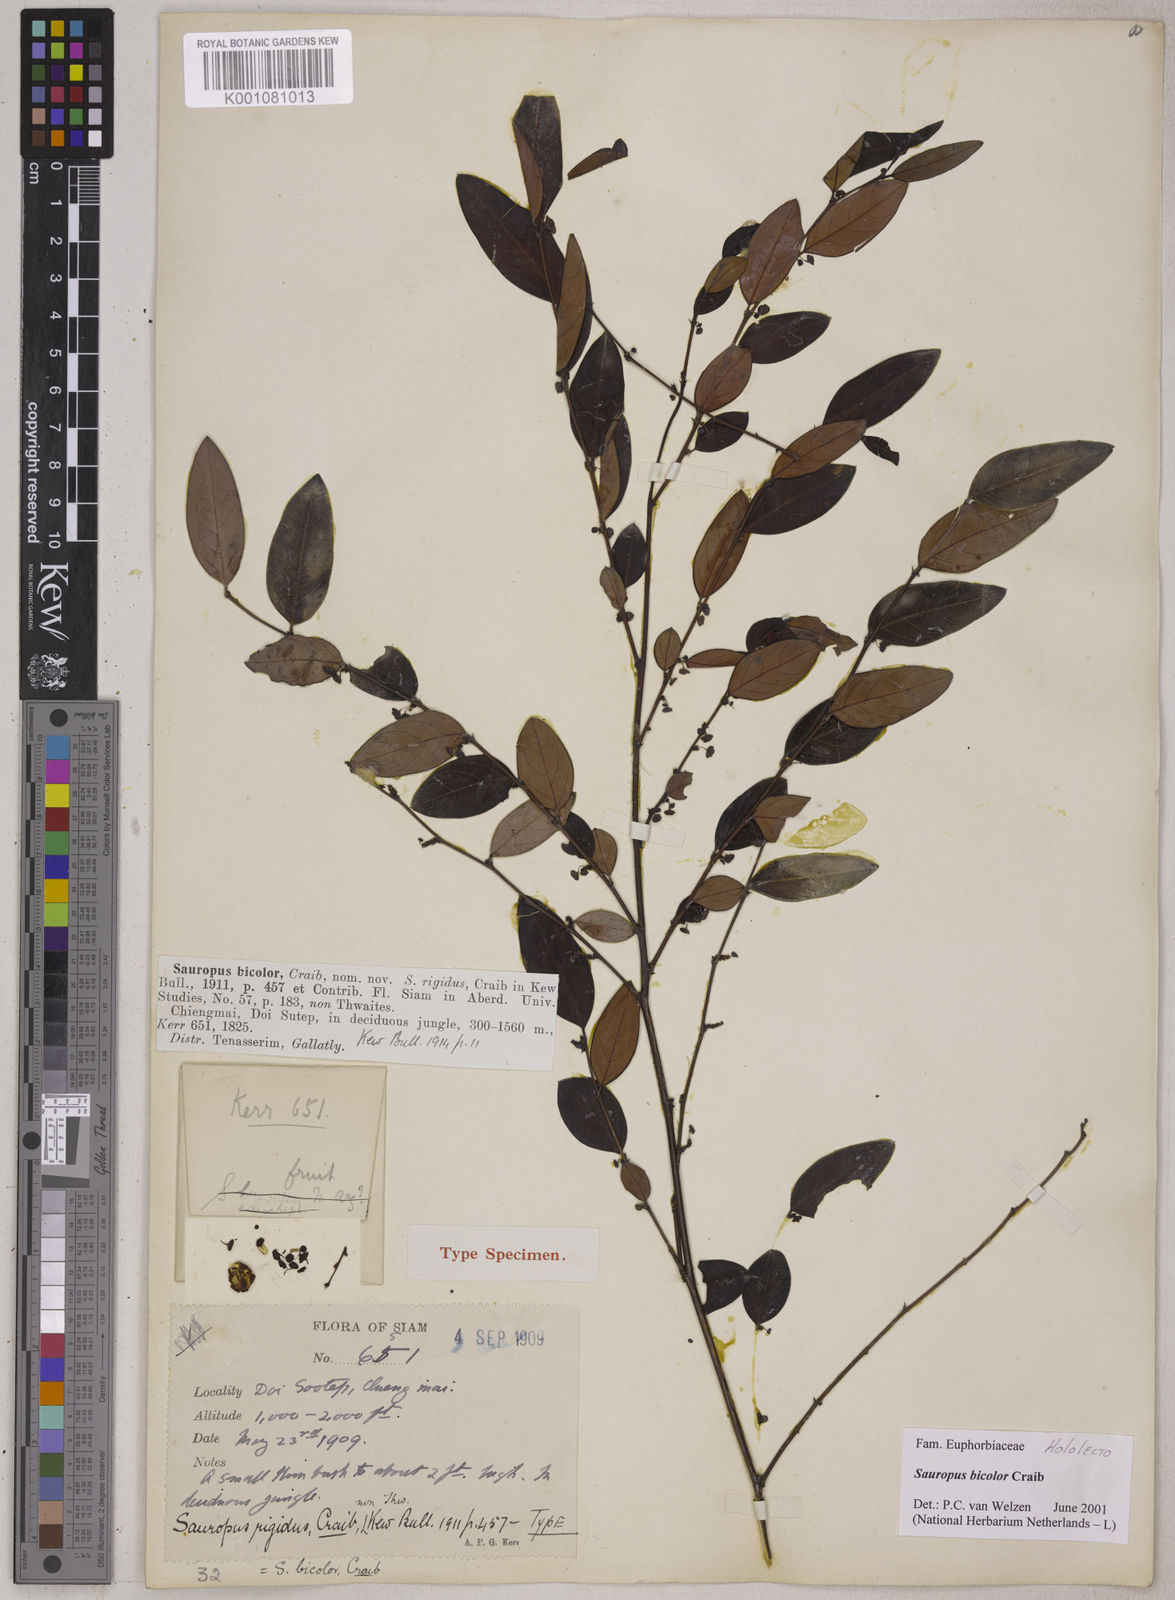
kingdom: Plantae
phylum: Tracheophyta
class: Magnoliopsida
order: Malpighiales
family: Phyllanthaceae
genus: Breynia
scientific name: Breynia bicolor
